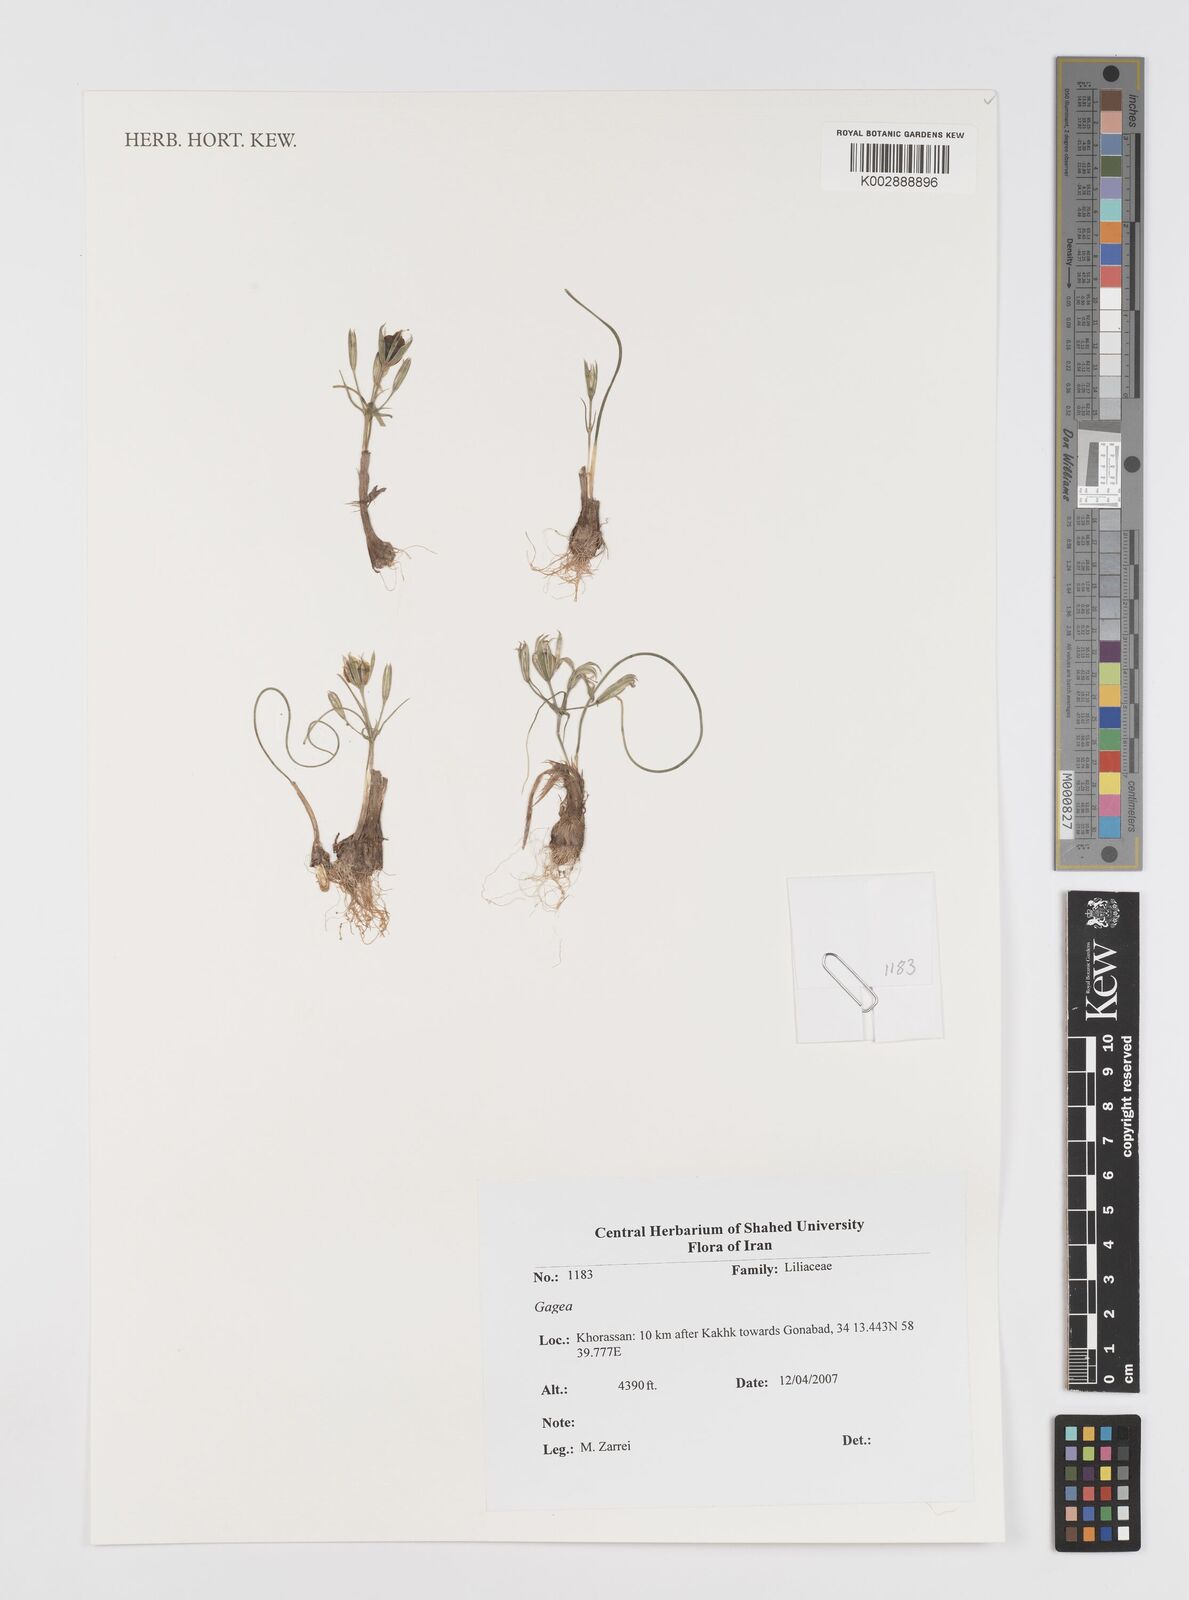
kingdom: Plantae
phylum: Tracheophyta
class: Liliopsida
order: Liliales
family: Liliaceae
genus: Gagea
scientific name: Gagea
